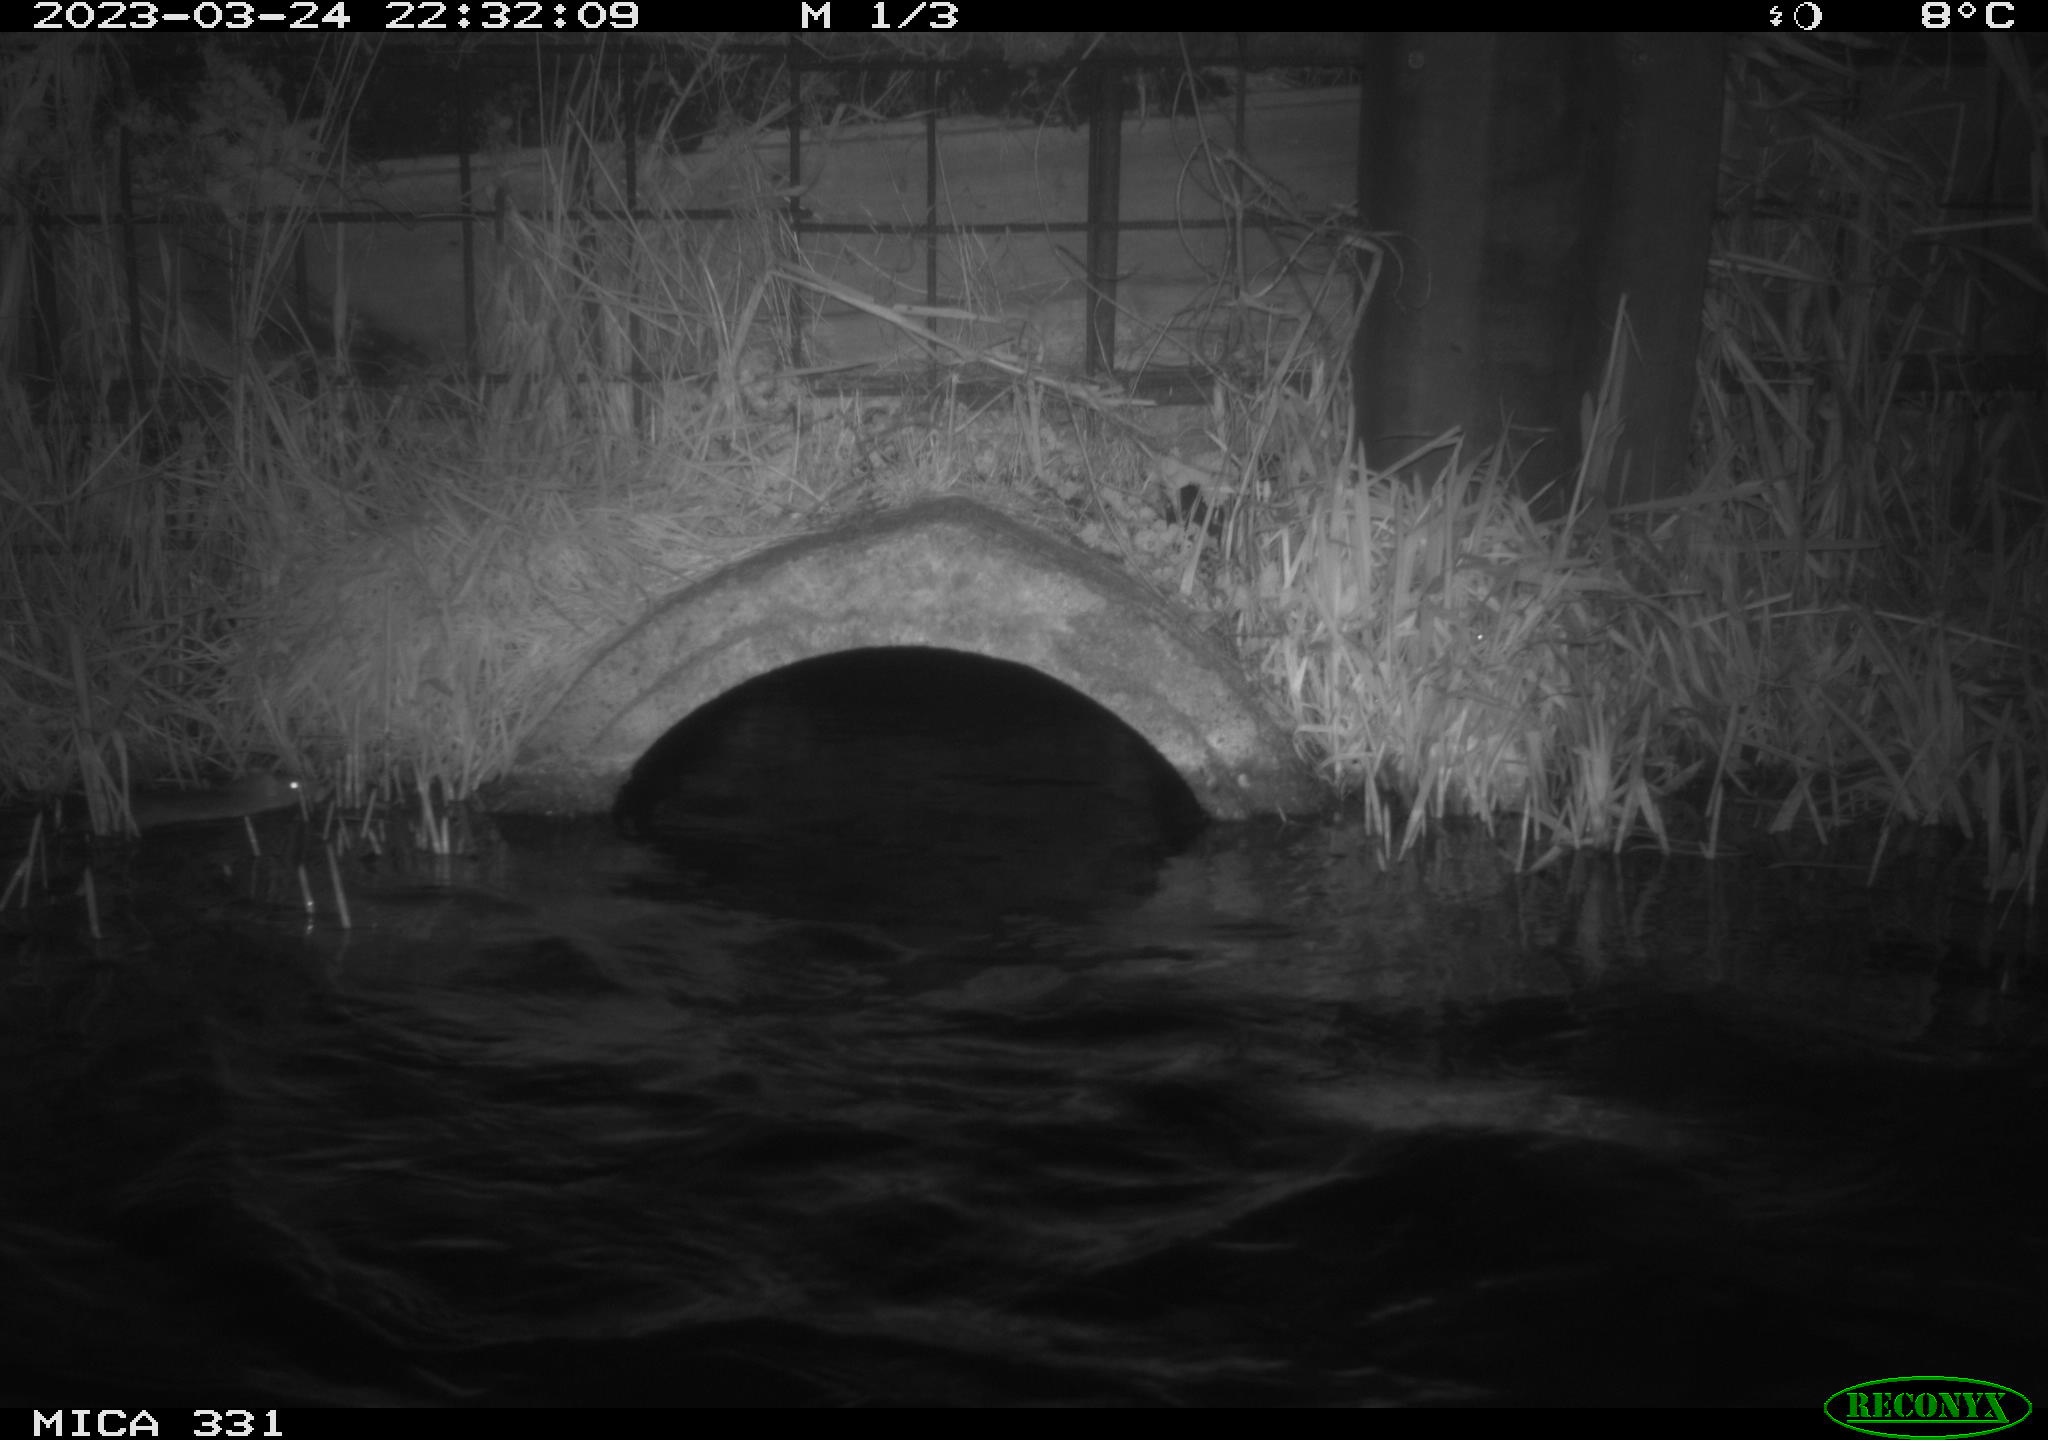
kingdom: Animalia
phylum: Chordata
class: Mammalia
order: Rodentia
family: Muridae
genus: Rattus
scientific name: Rattus norvegicus
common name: Brown rat
